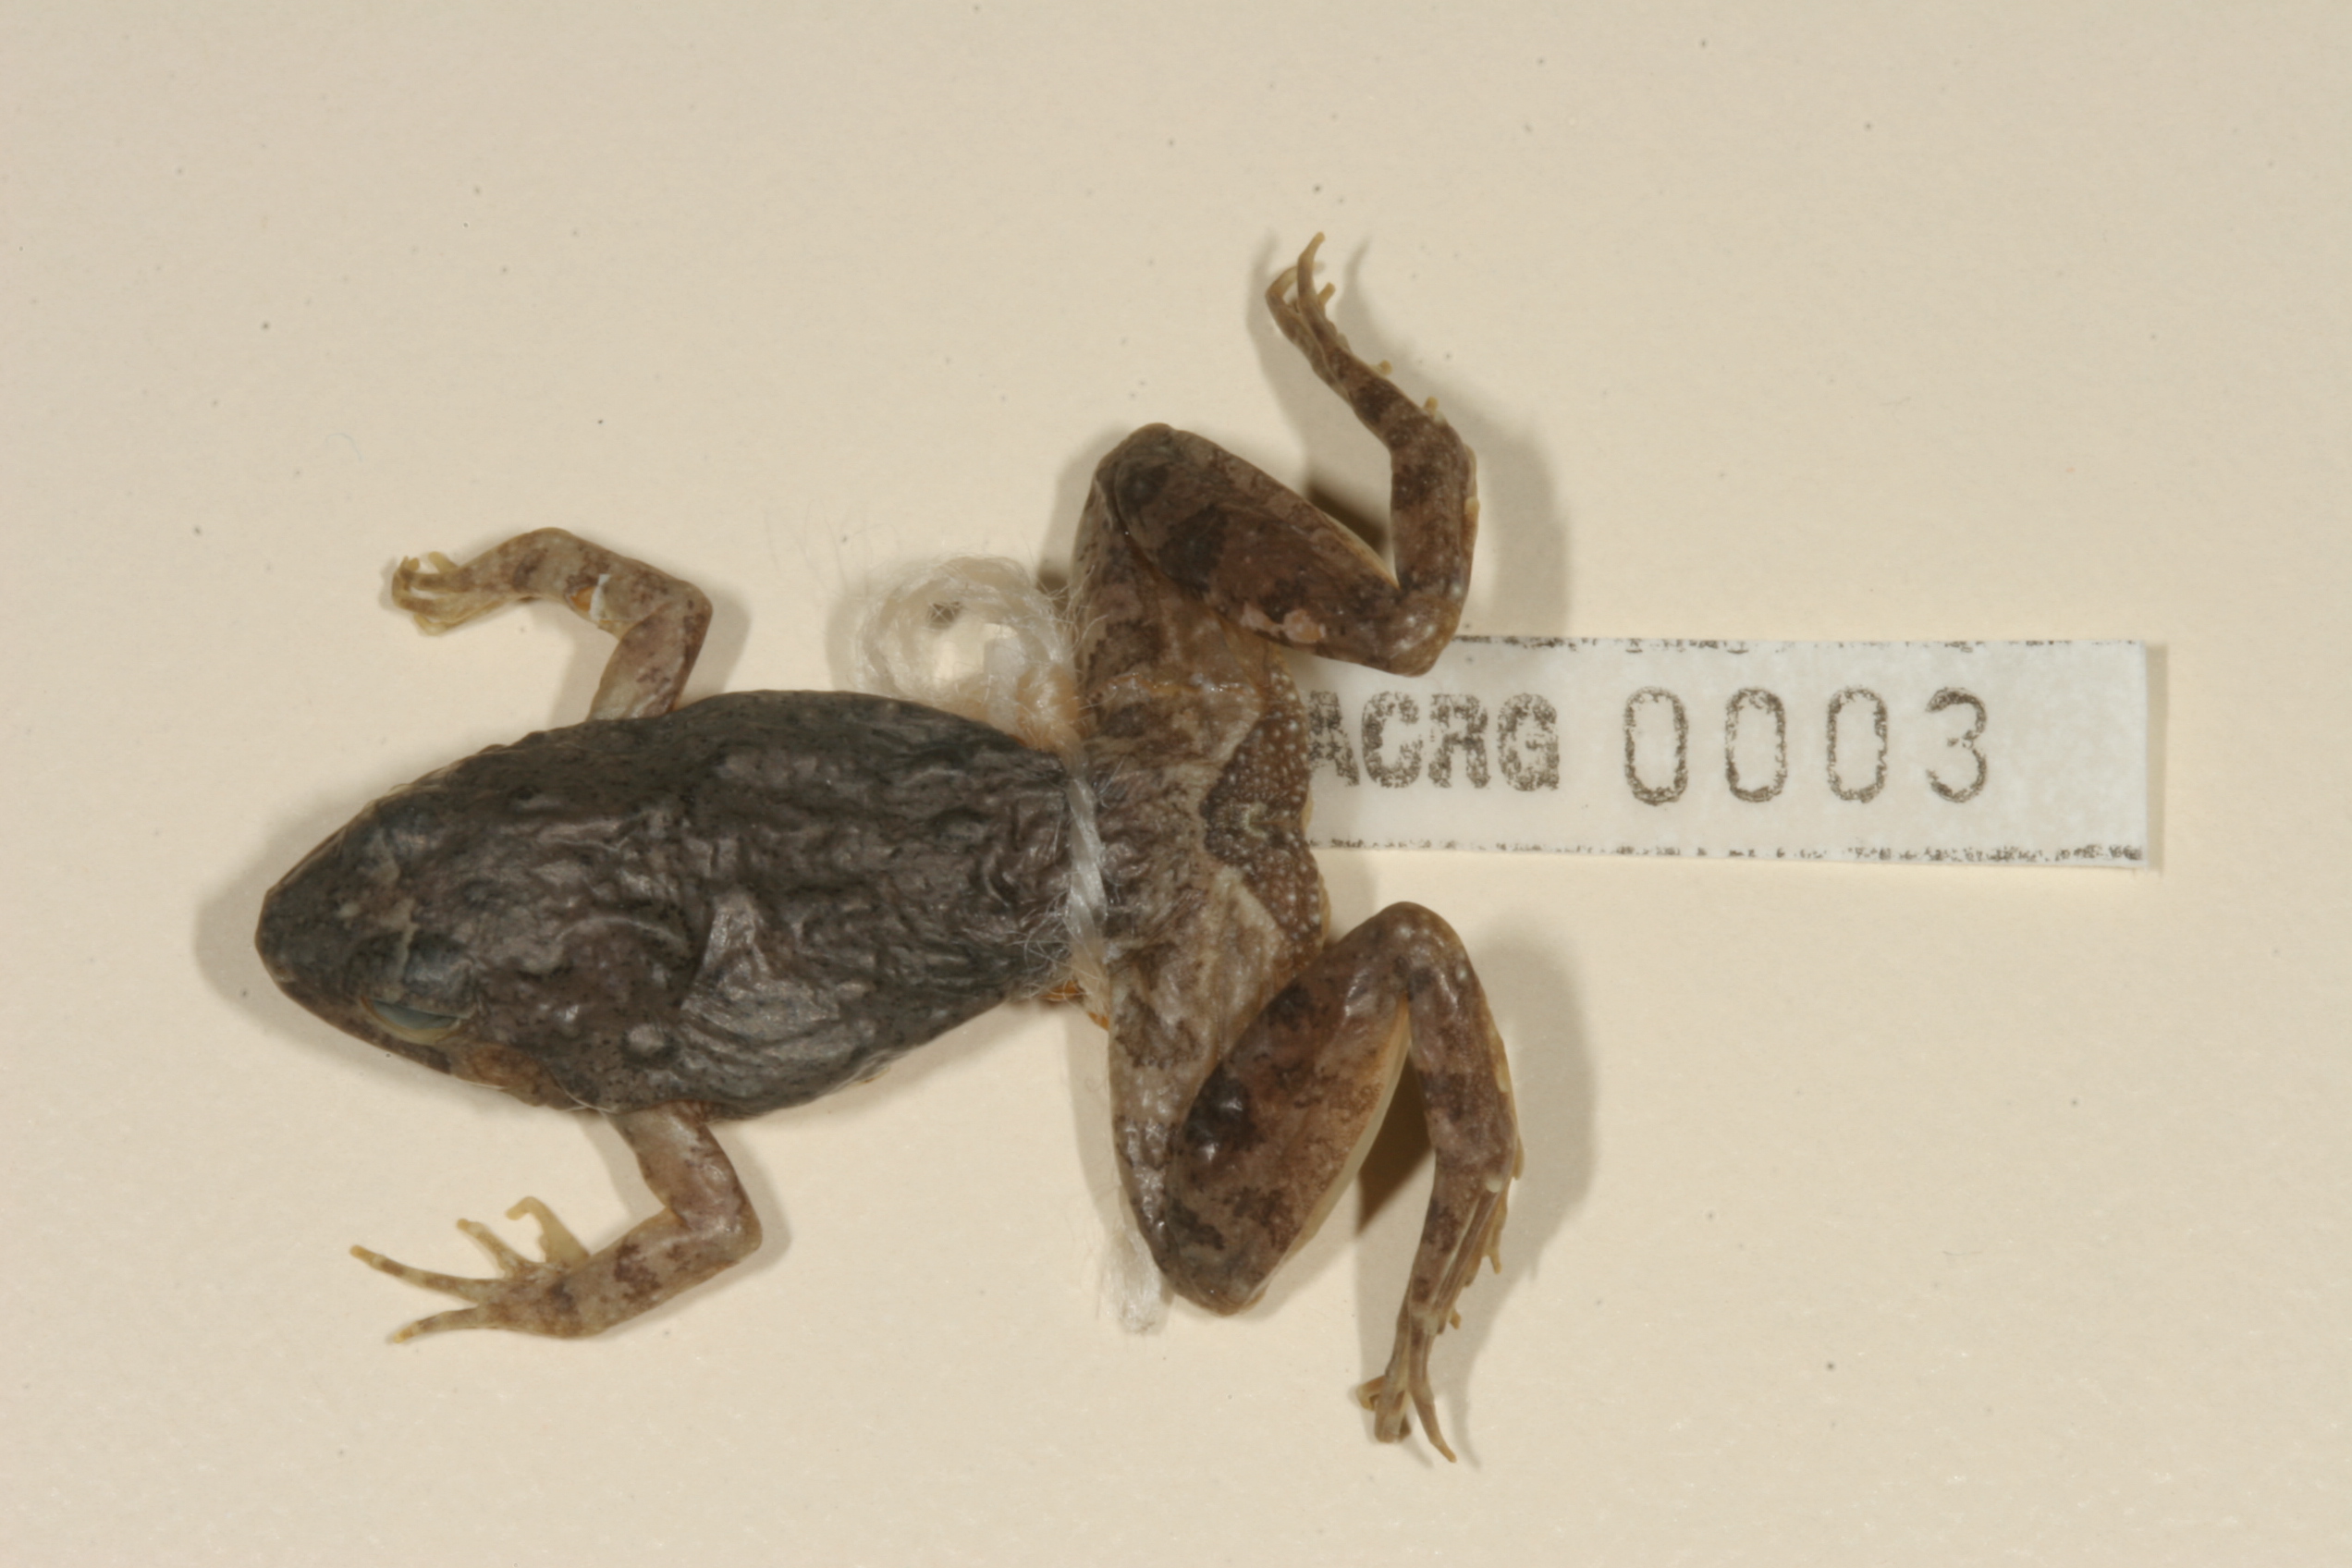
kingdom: Animalia
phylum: Chordata
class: Amphibia
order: Anura
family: Phrynobatrachidae
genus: Phrynobatrachus
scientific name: Phrynobatrachus natalensis
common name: Snoring puddle frog
